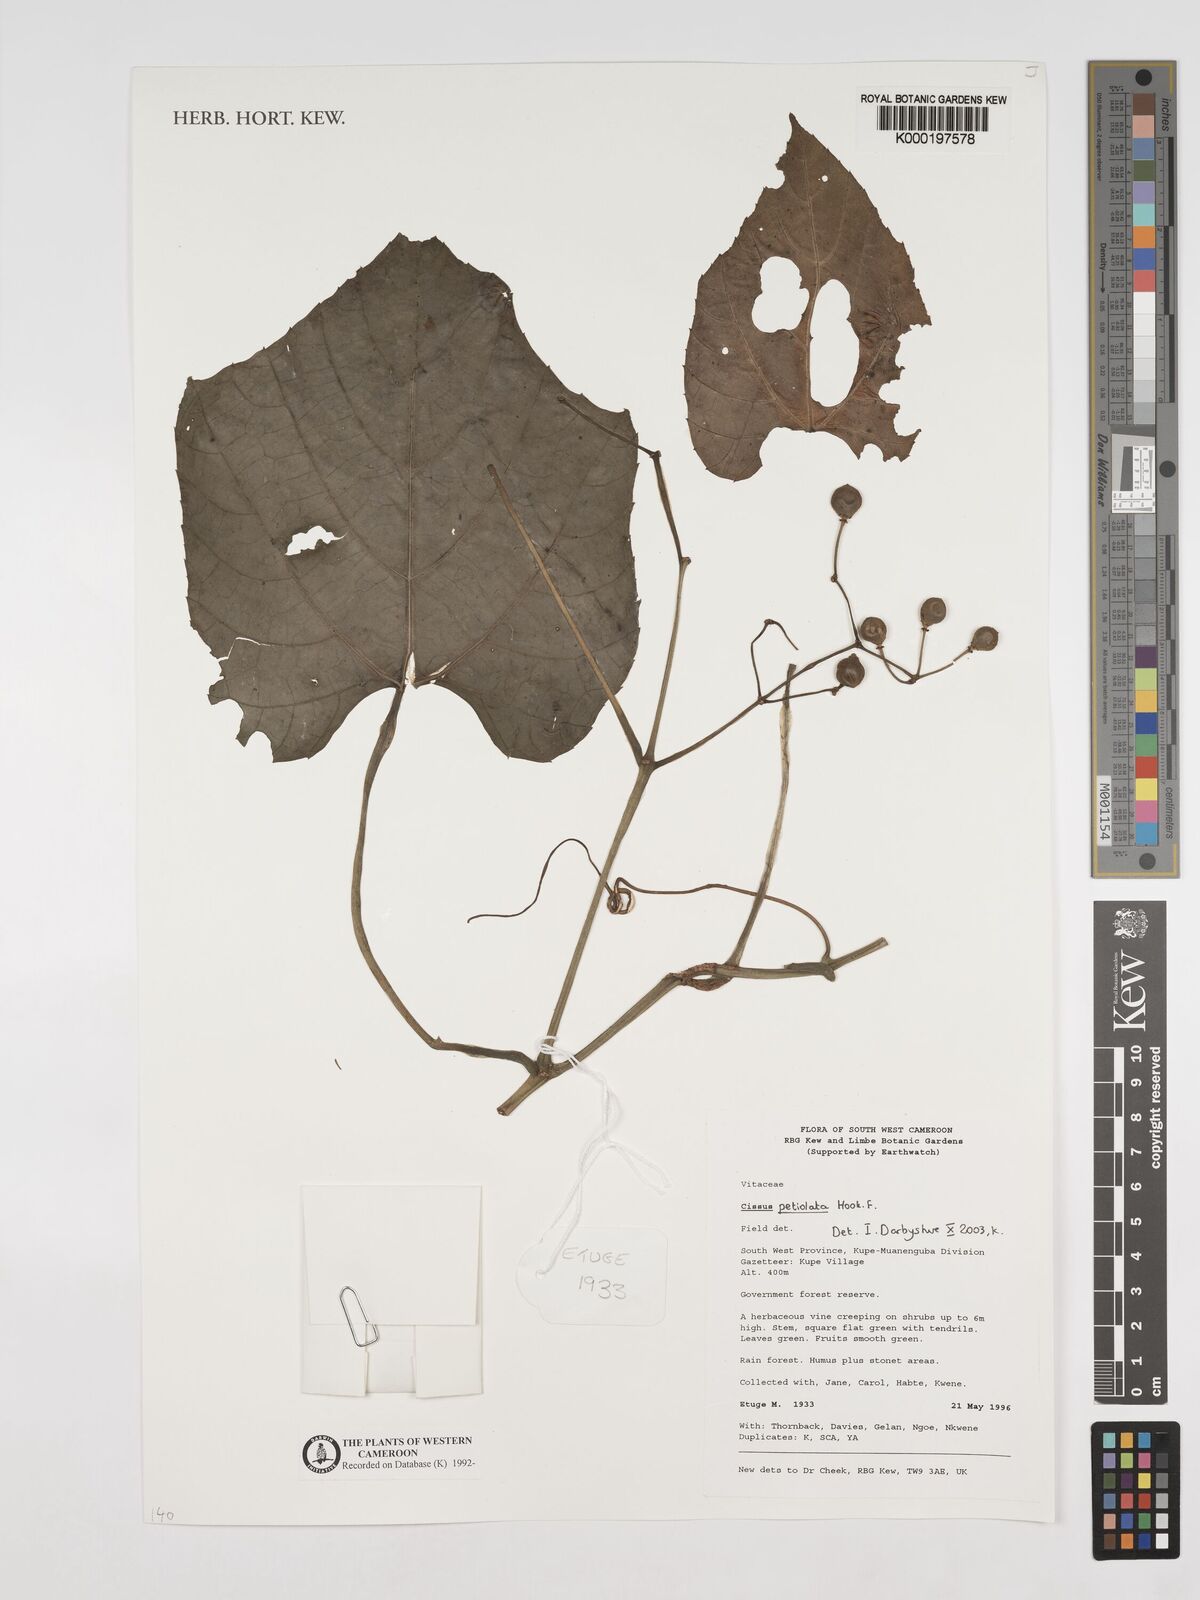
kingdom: Plantae
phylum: Tracheophyta
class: Magnoliopsida
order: Vitales
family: Vitaceae
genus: Cissus
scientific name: Cissus petiolata
